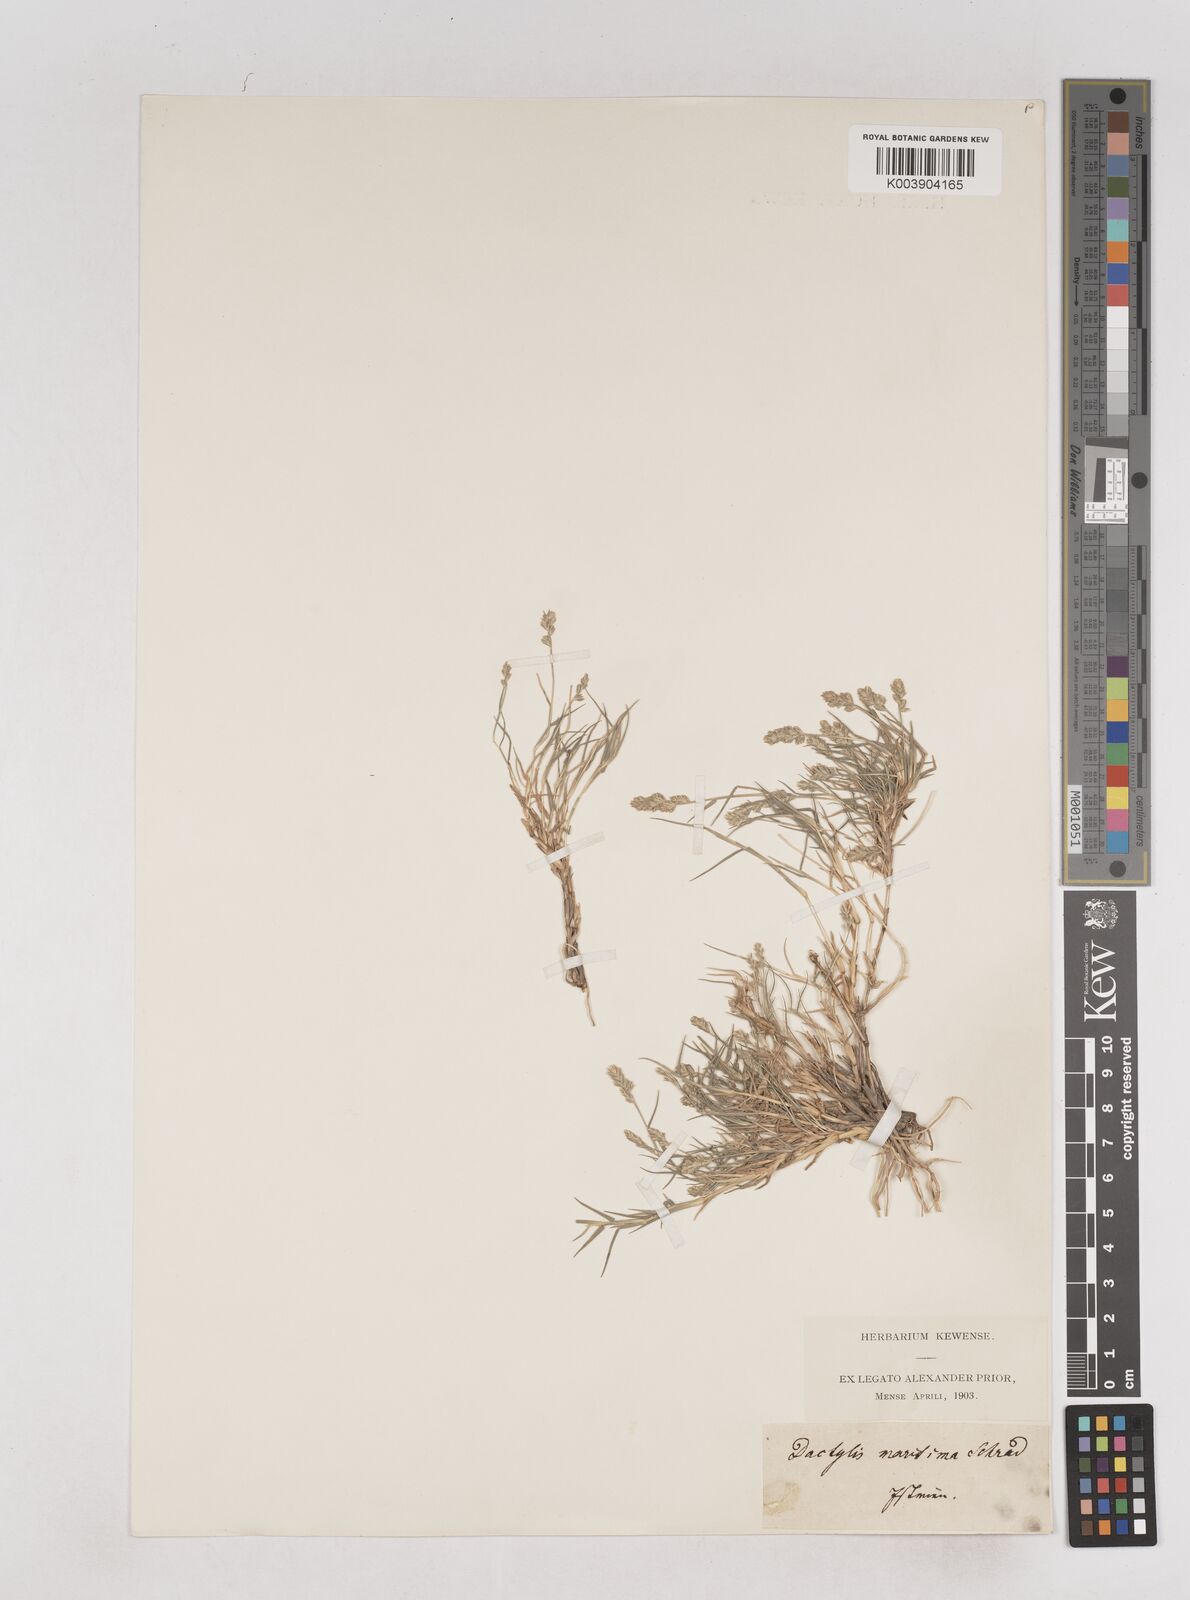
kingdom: Plantae
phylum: Tracheophyta
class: Liliopsida
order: Poales
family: Poaceae
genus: Aeluropus
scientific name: Aeluropus littoralis
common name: Indian walnut
